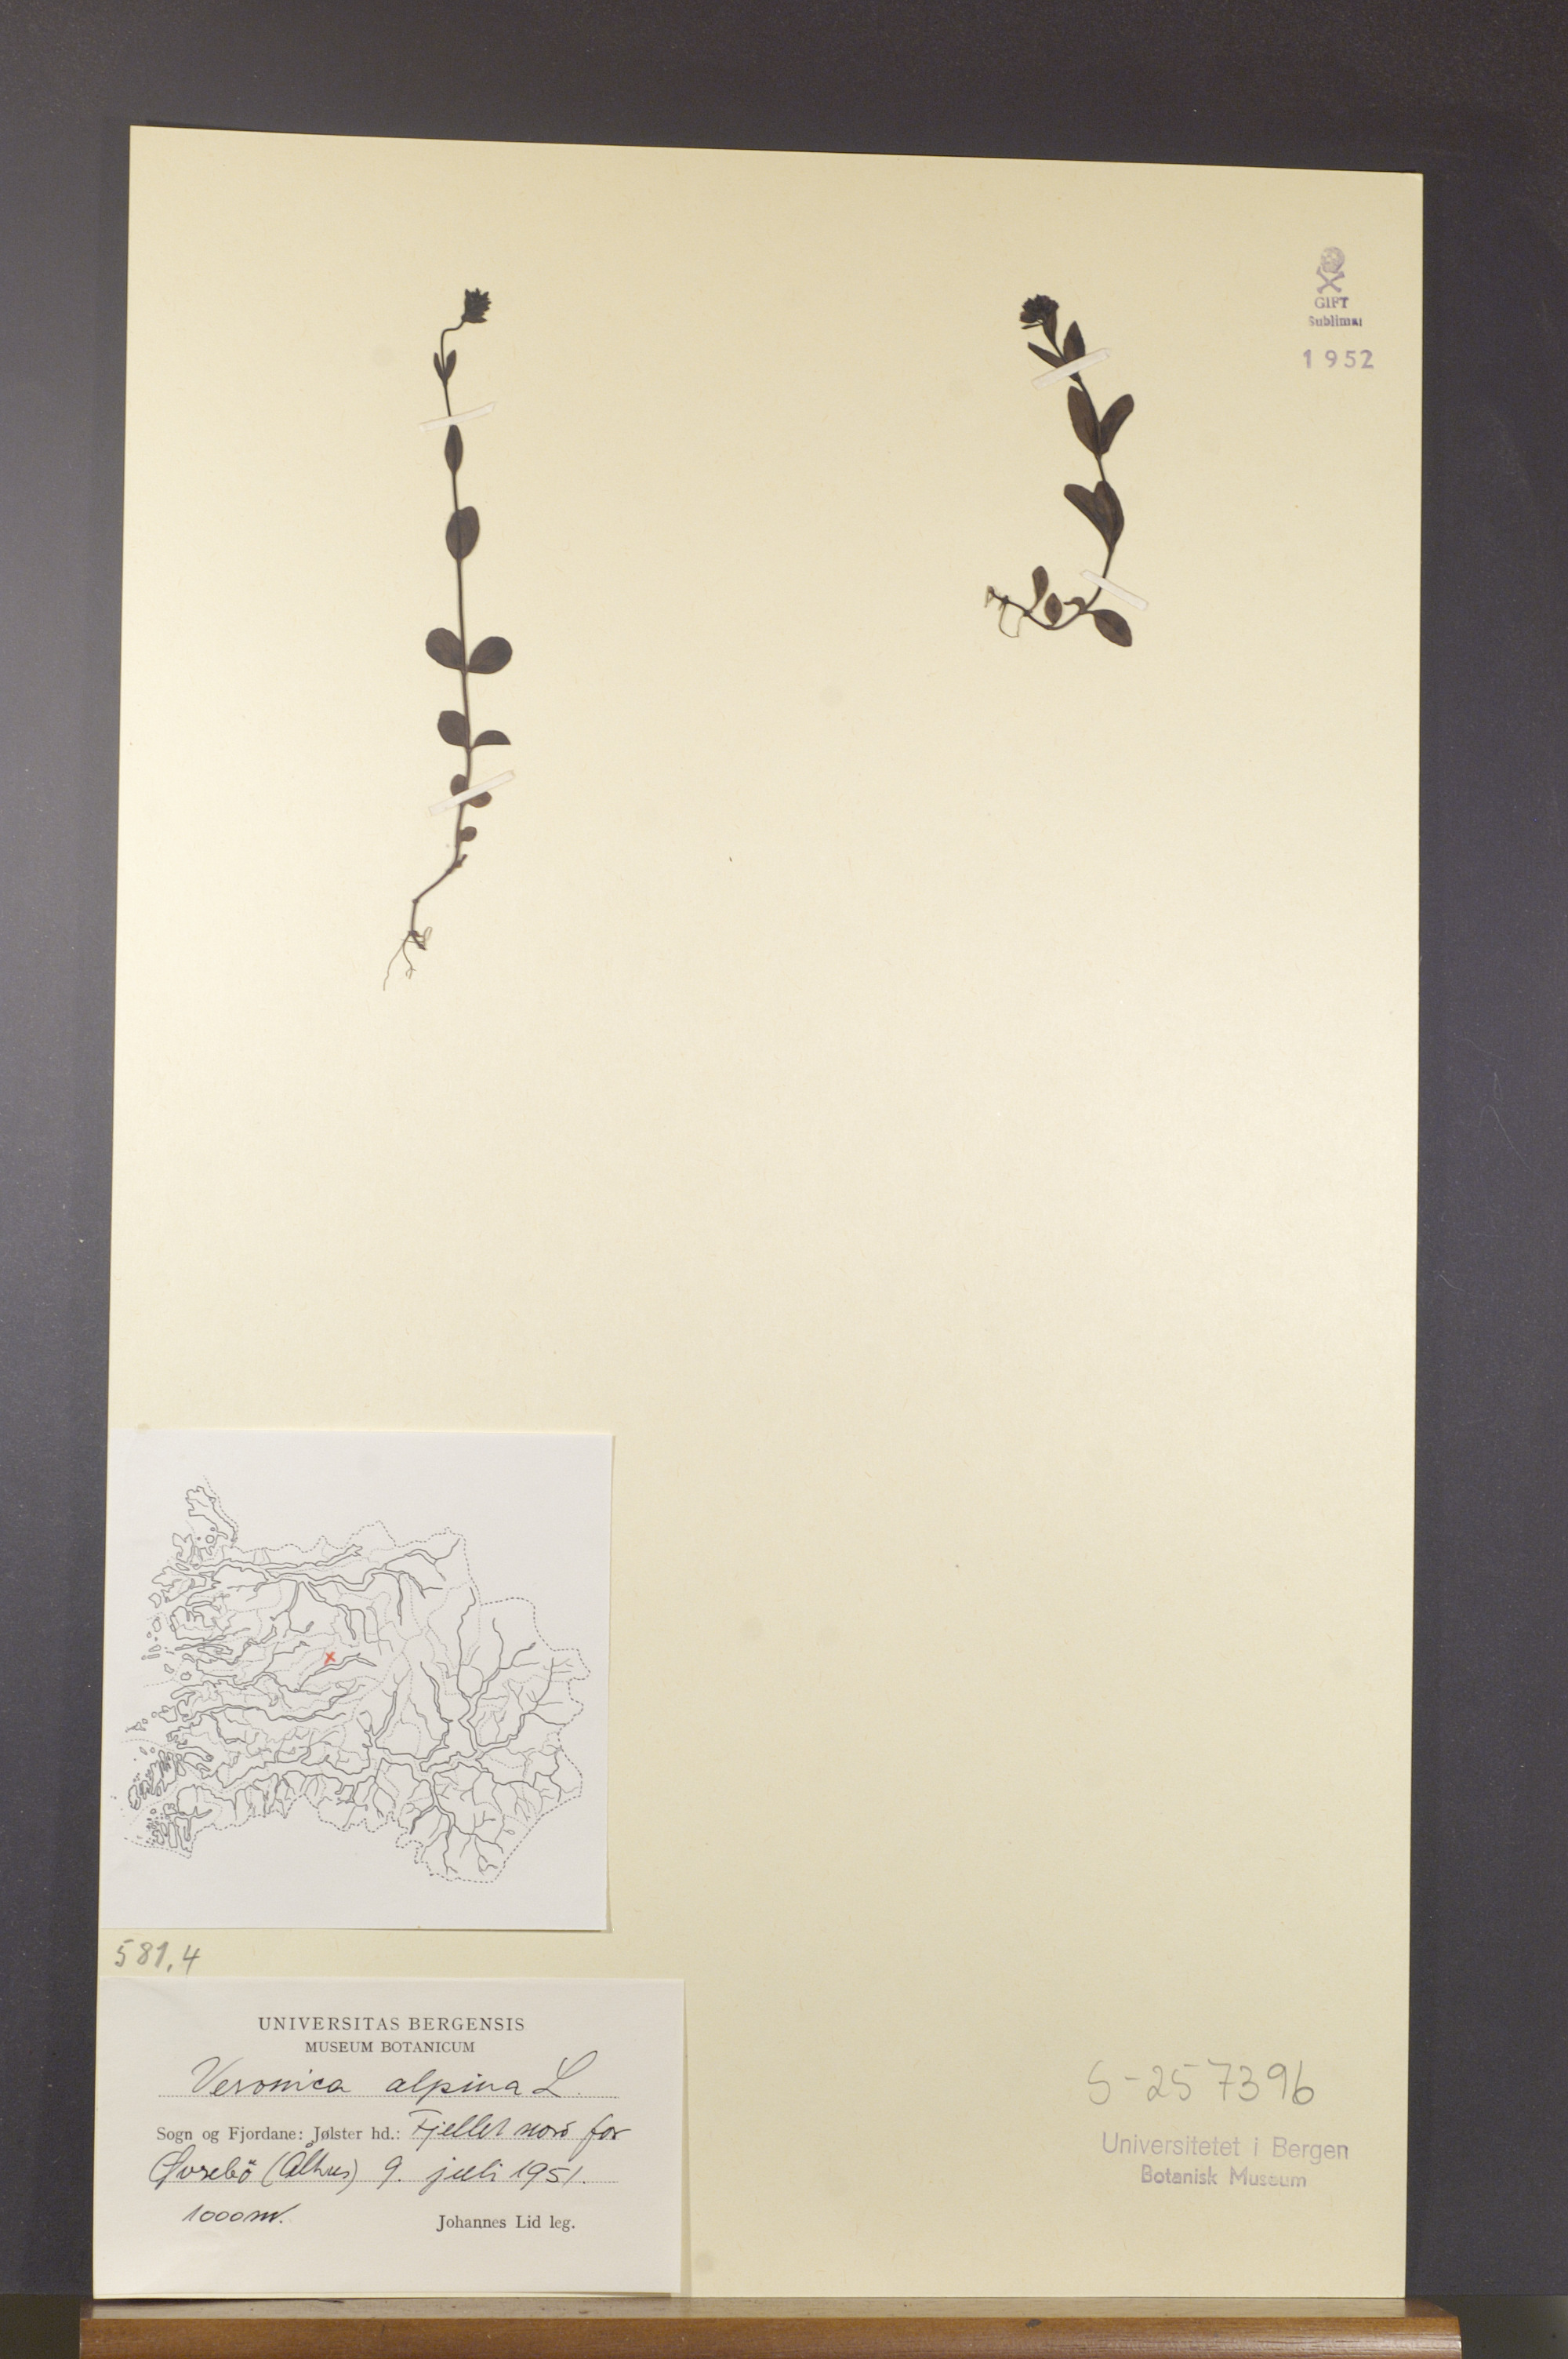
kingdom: Plantae
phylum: Tracheophyta
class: Magnoliopsida
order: Lamiales
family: Plantaginaceae
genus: Veronica
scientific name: Veronica alpina
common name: Alpine speedwell
